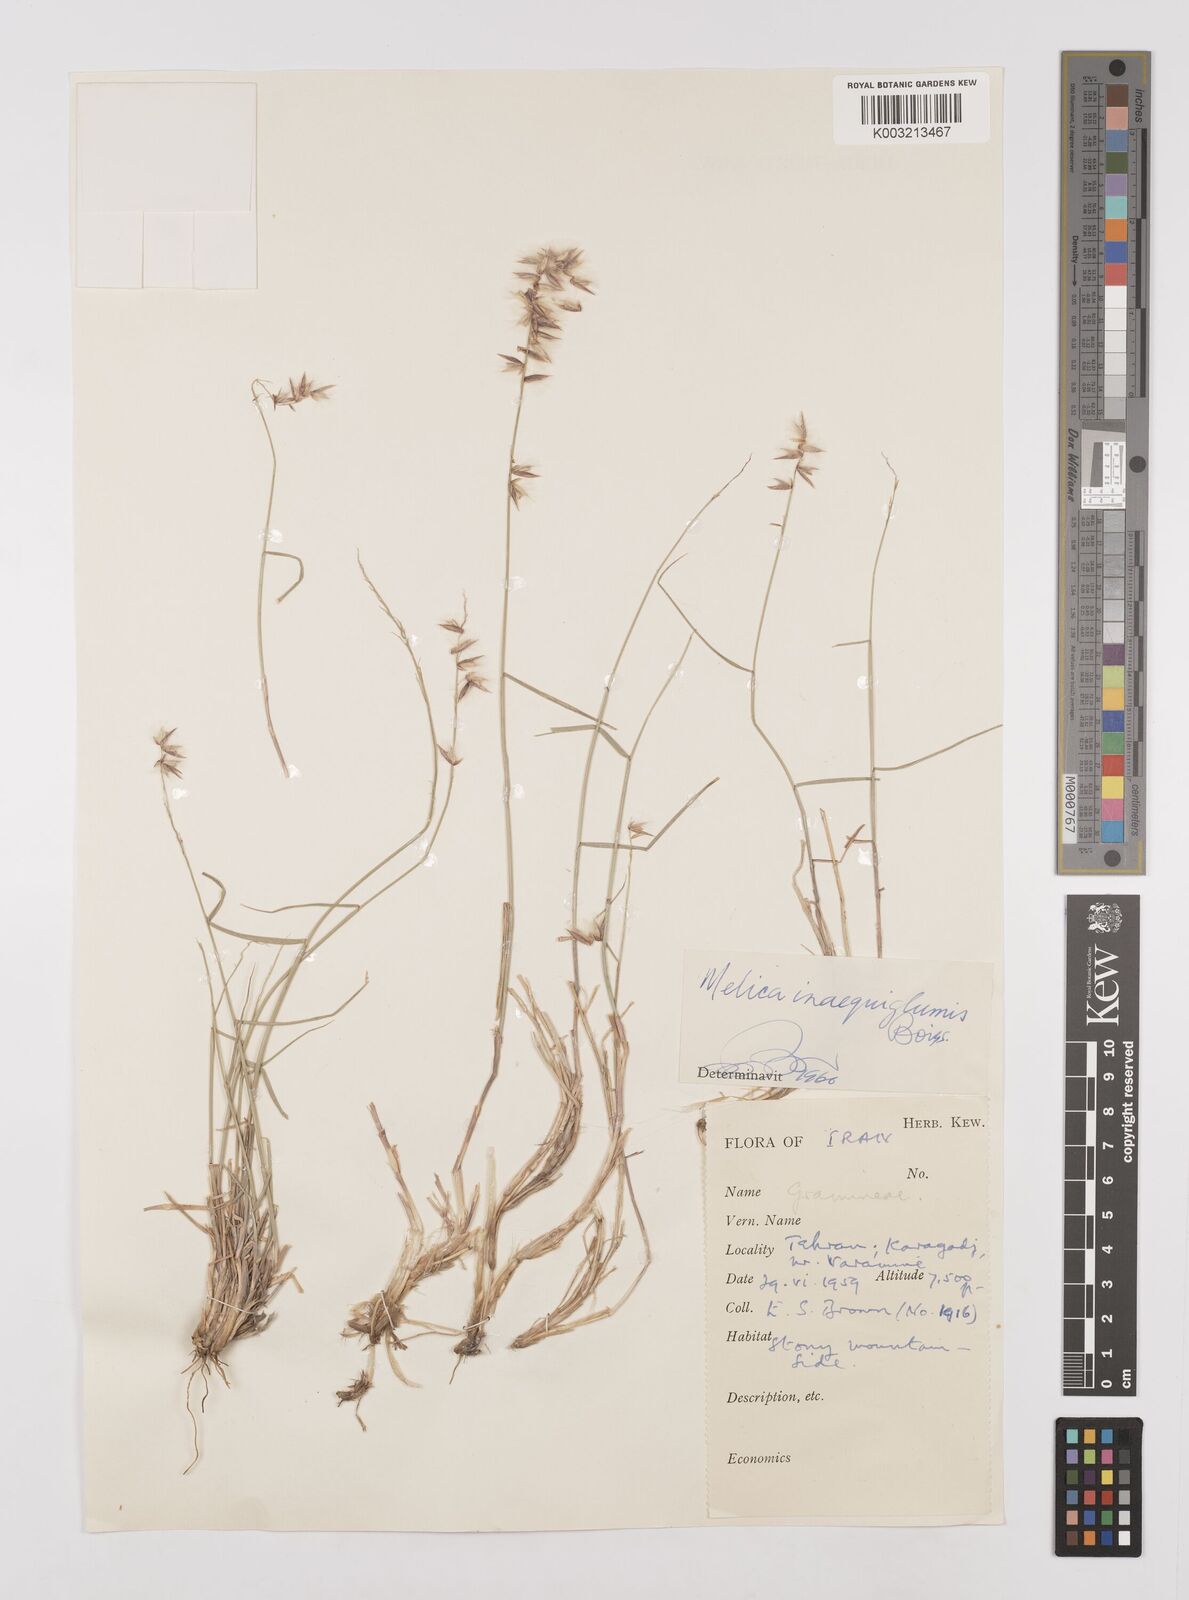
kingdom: Plantae
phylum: Tracheophyta
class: Liliopsida
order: Poales
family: Poaceae
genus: Melica
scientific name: Melica persica
